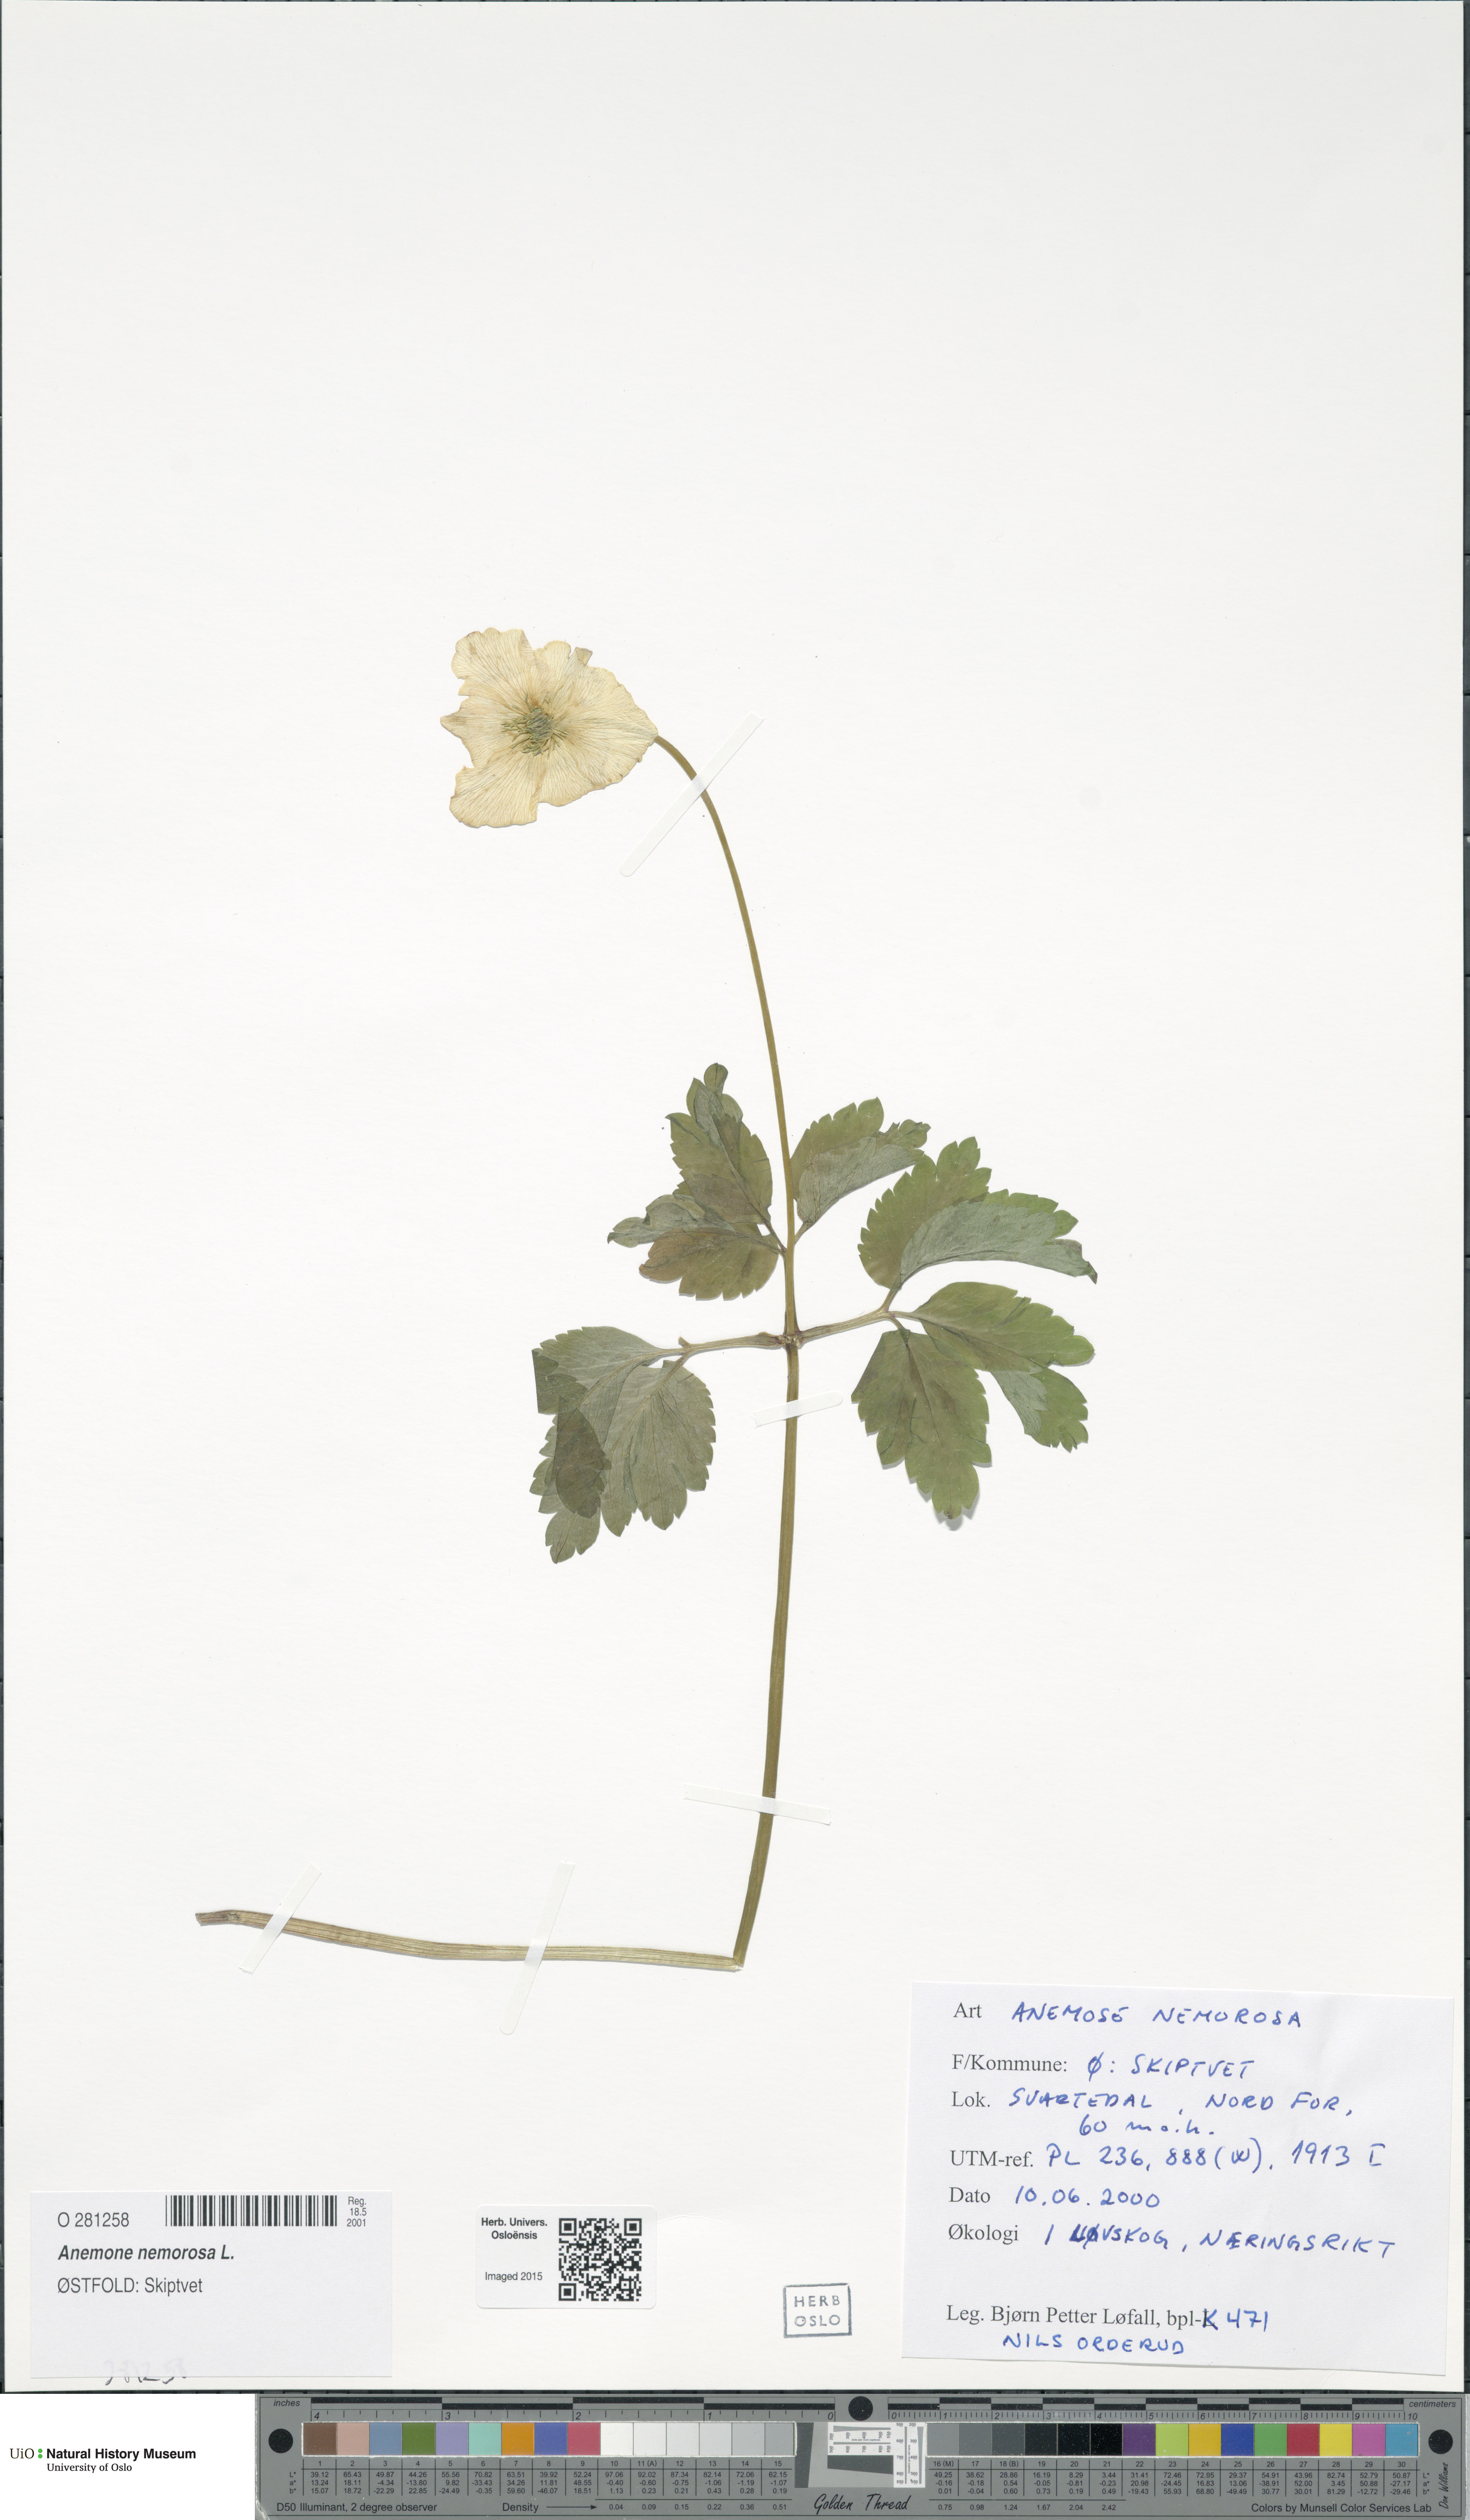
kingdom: Plantae
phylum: Tracheophyta
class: Magnoliopsida
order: Ranunculales
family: Ranunculaceae
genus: Anemone
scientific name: Anemone nemorosa
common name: Wood anemone
